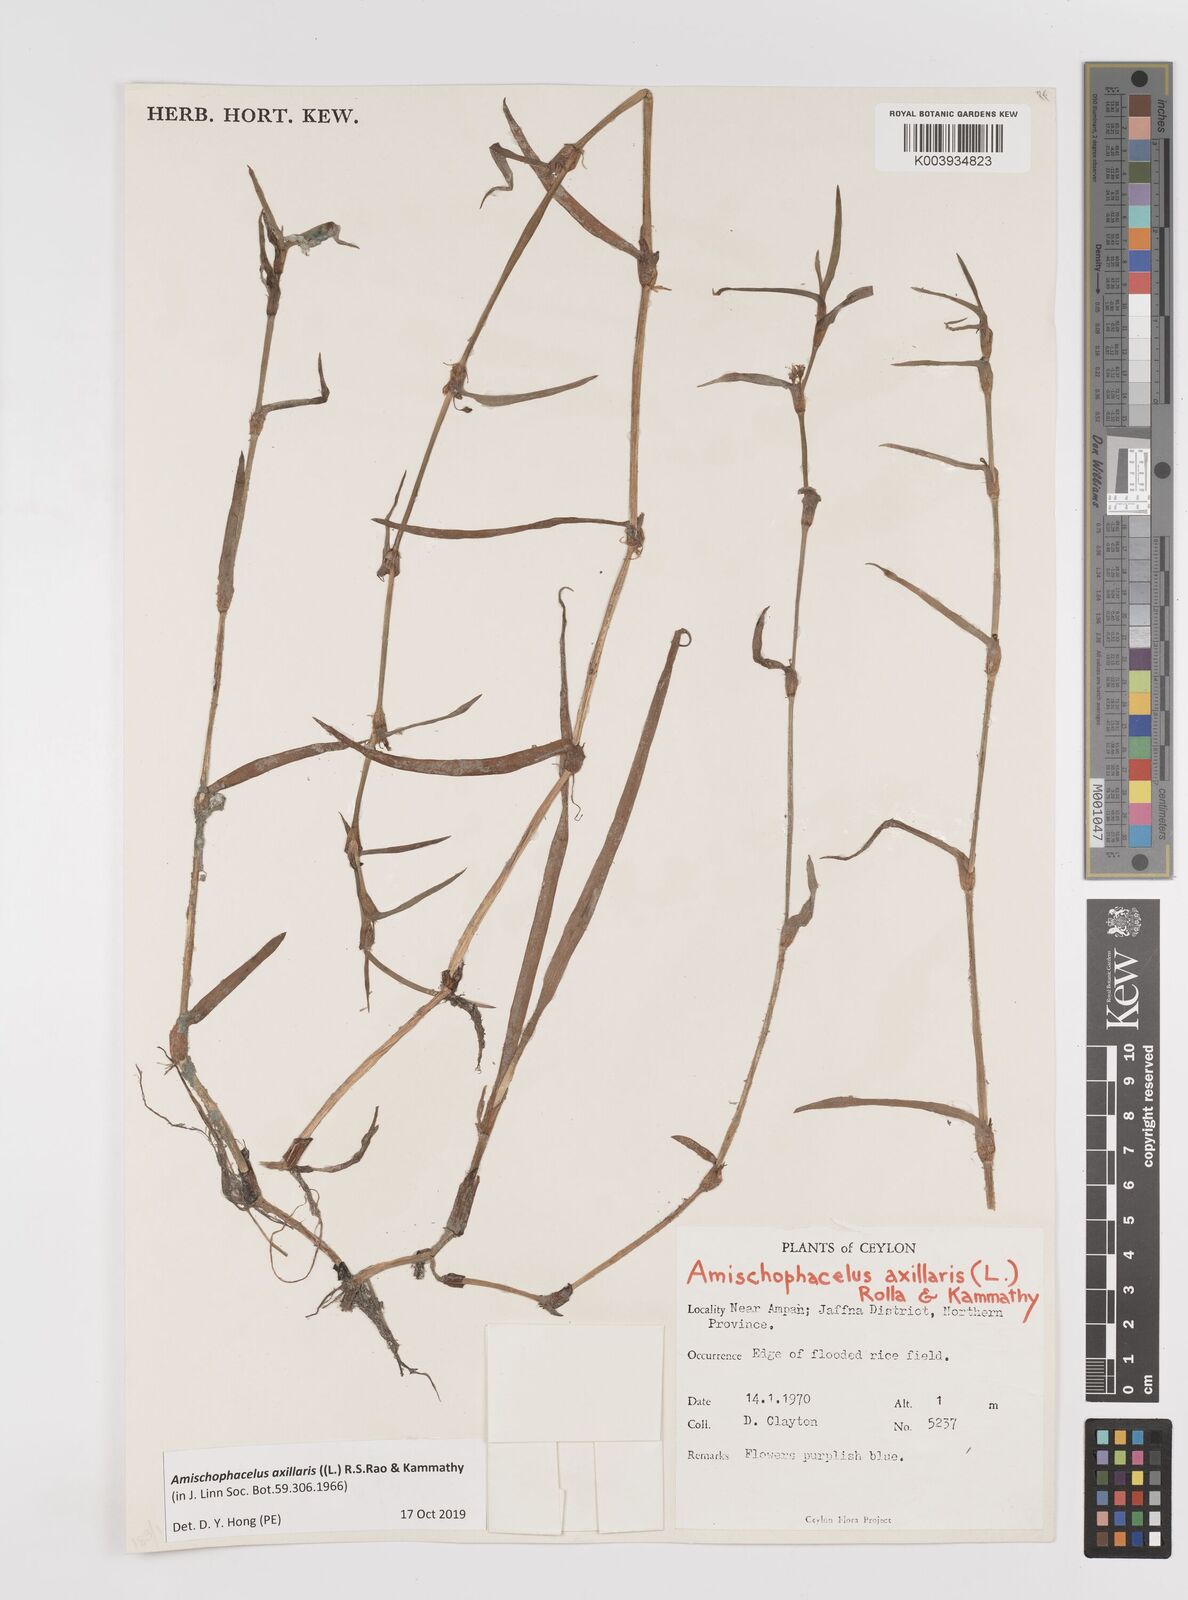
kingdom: Plantae
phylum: Tracheophyta
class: Liliopsida
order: Commelinales
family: Commelinaceae
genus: Cyanotis
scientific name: Cyanotis axillaris
